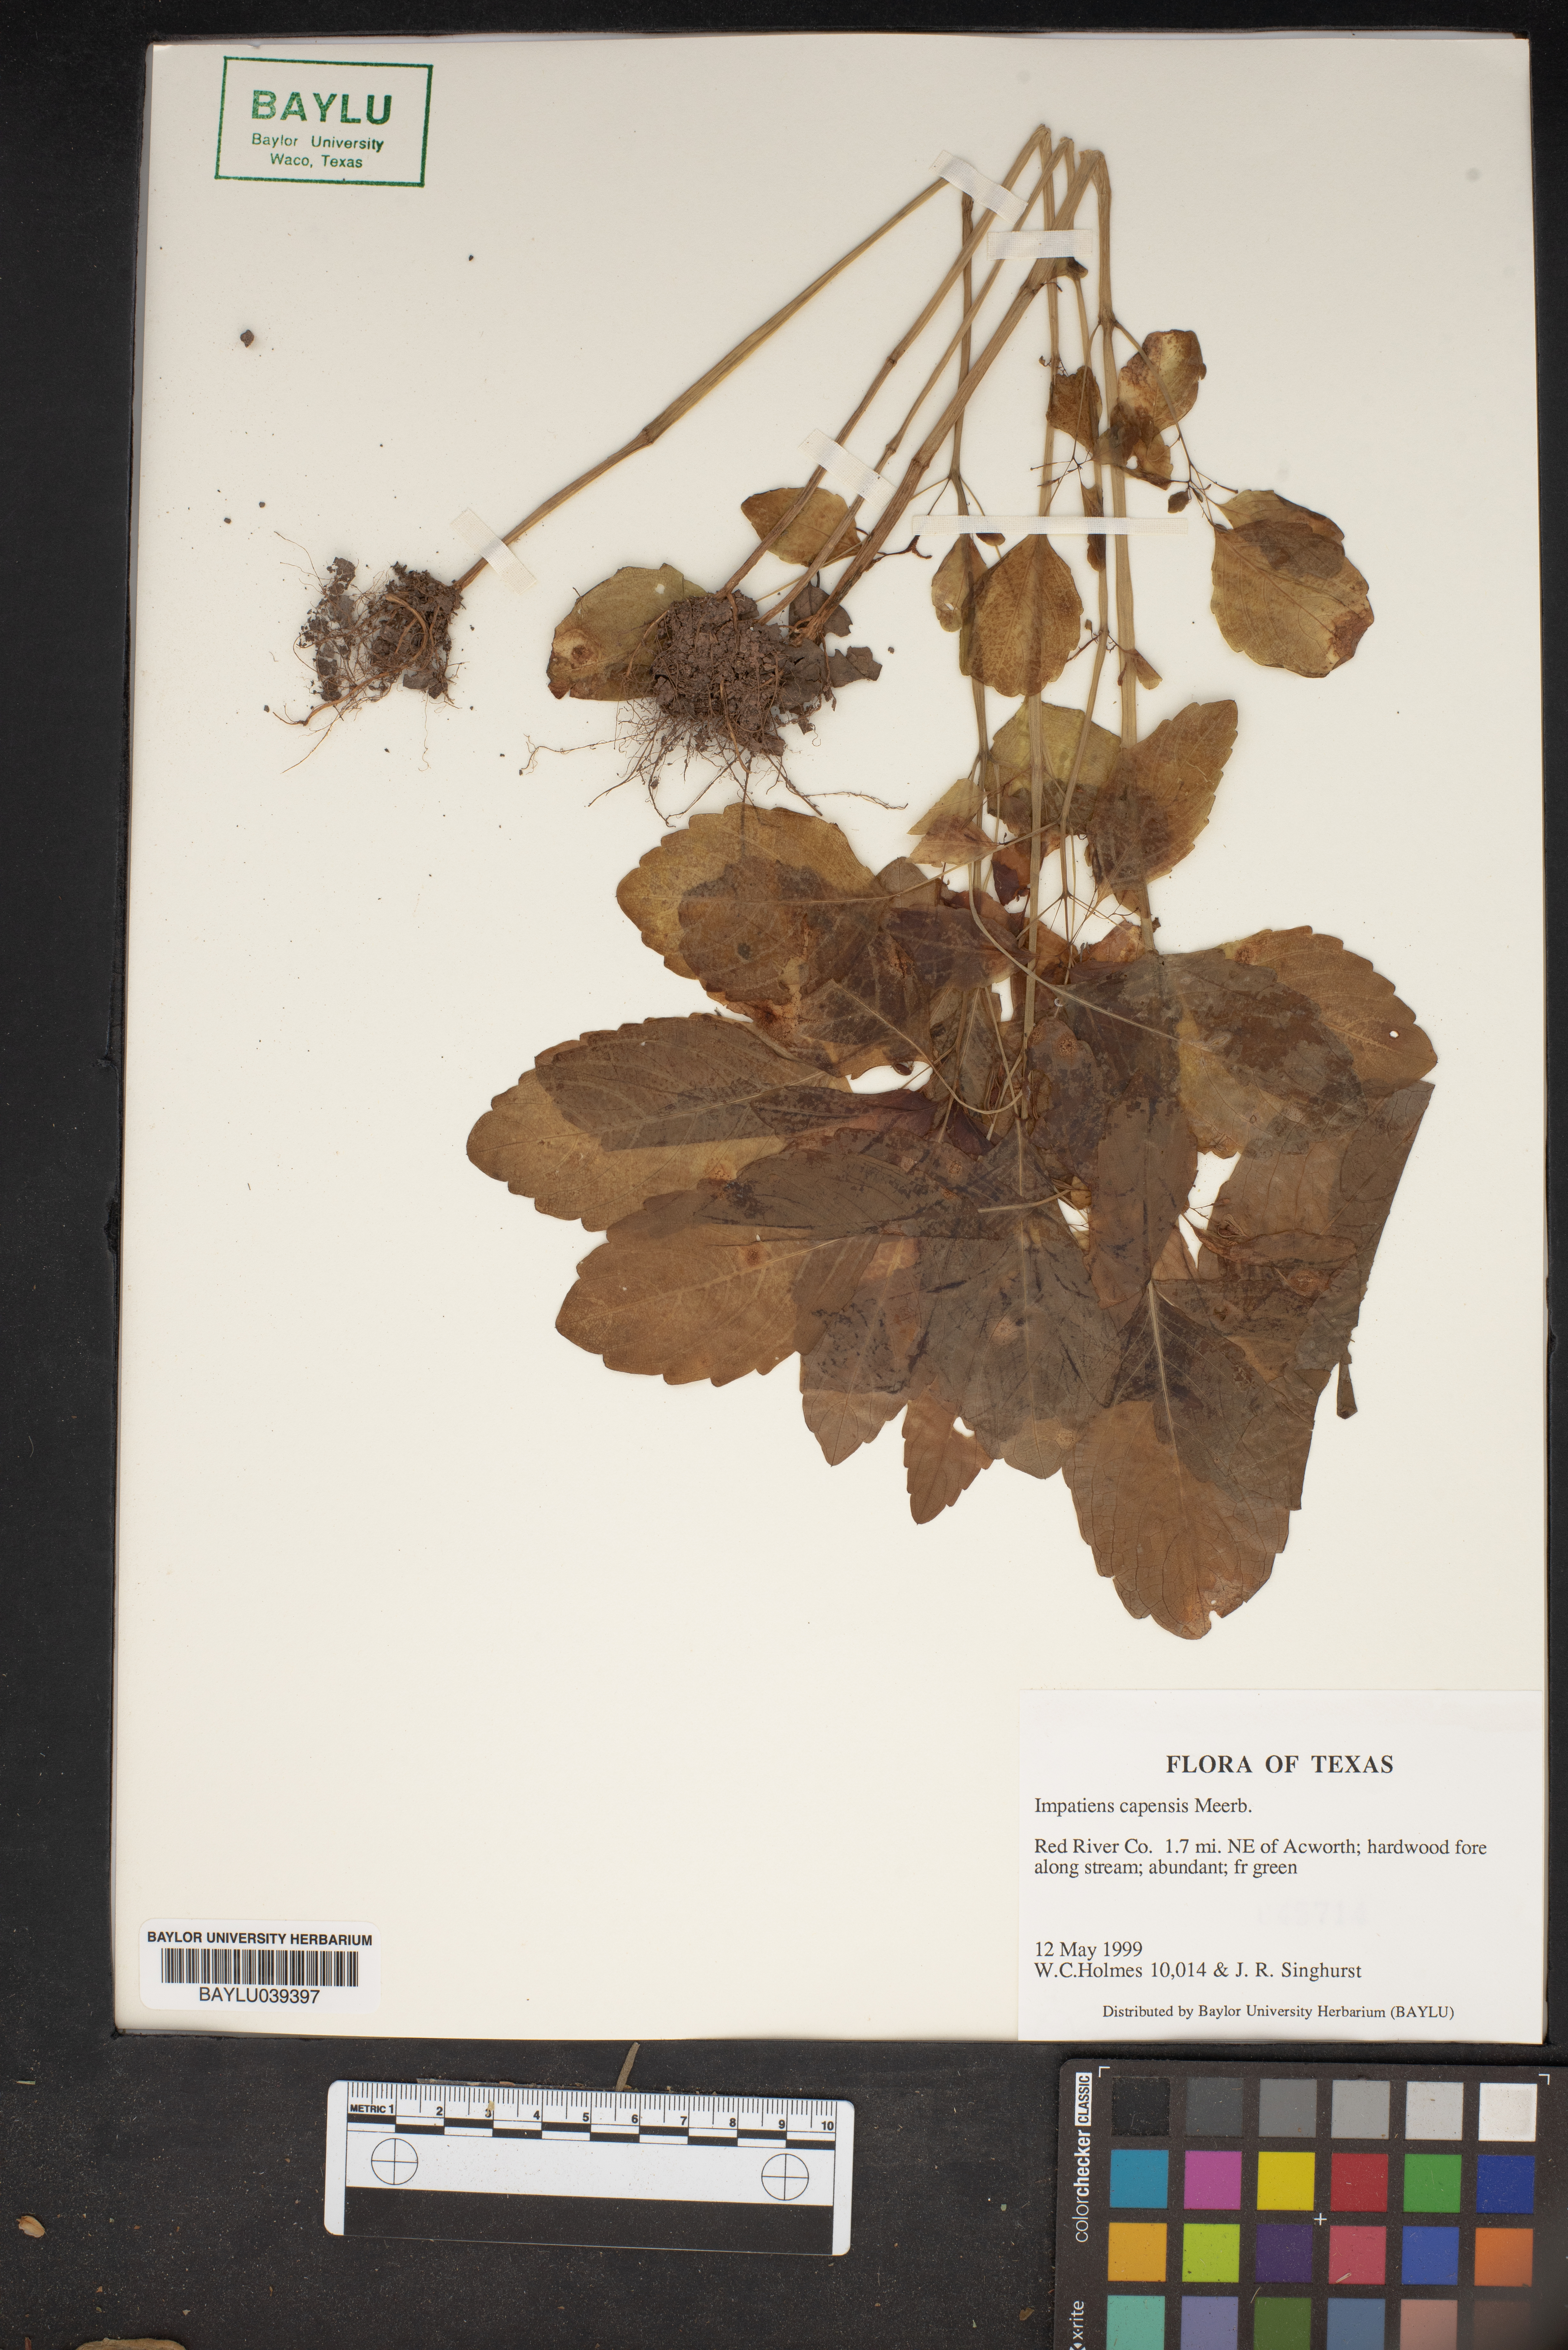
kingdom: Plantae
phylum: Tracheophyta
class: Magnoliopsida
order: Ericales
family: Balsaminaceae
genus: Impatiens
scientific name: Impatiens capensis
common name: Orange balsam
